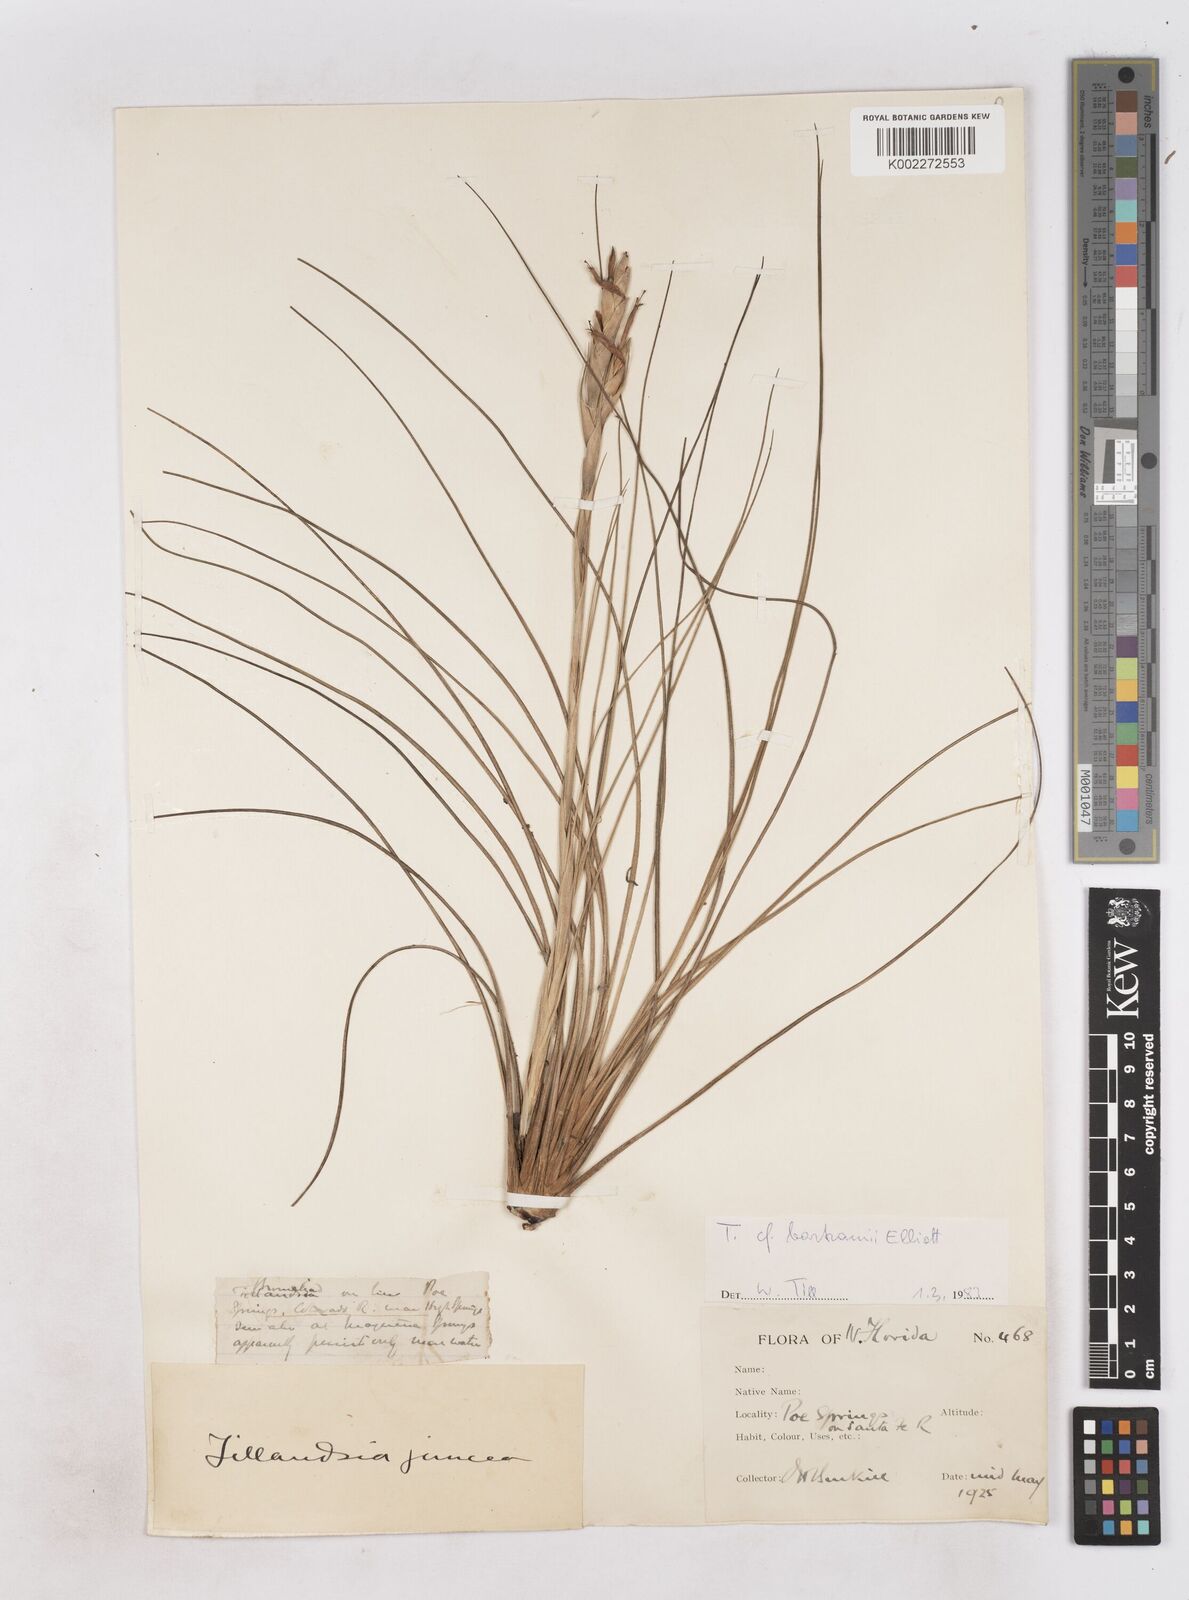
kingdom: Plantae
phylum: Tracheophyta
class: Liliopsida
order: Poales
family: Bromeliaceae
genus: Tillandsia
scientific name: Tillandsia bartramii
